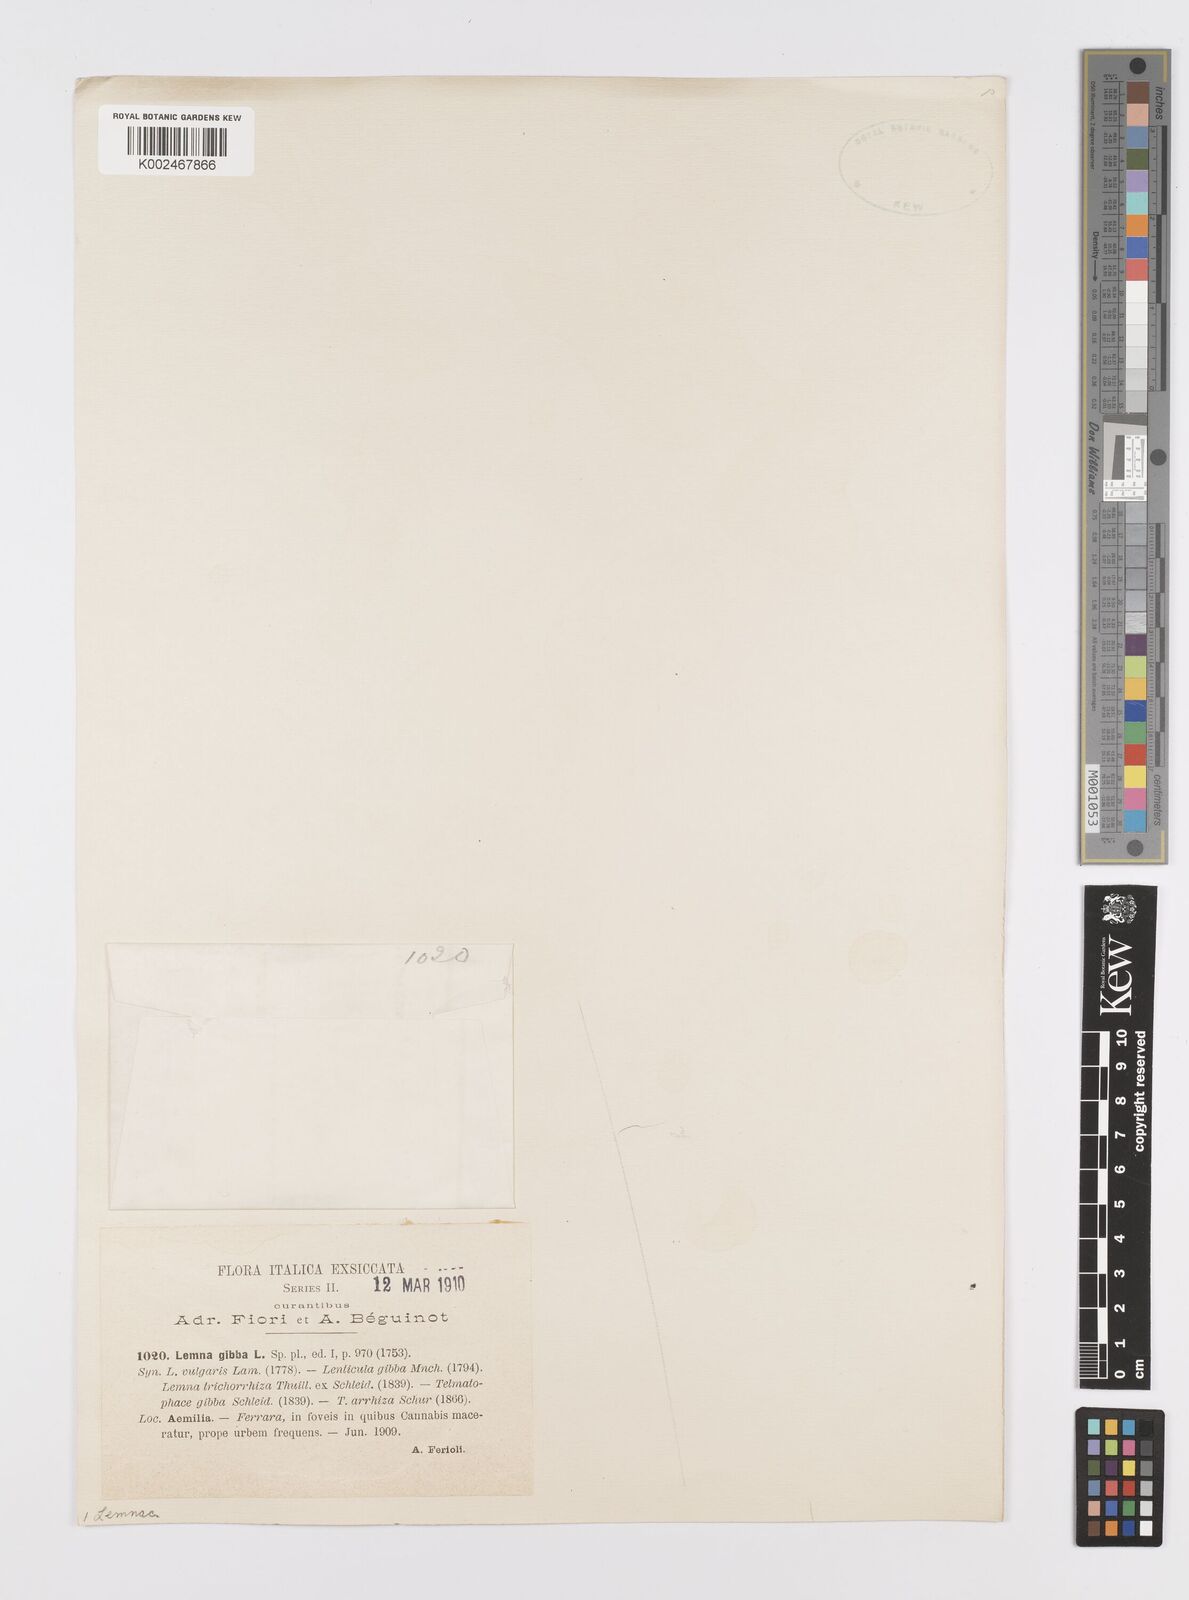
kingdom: Plantae
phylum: Tracheophyta
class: Liliopsida
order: Alismatales
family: Araceae
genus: Lemna
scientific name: Lemna gibba
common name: Fat duckweed
